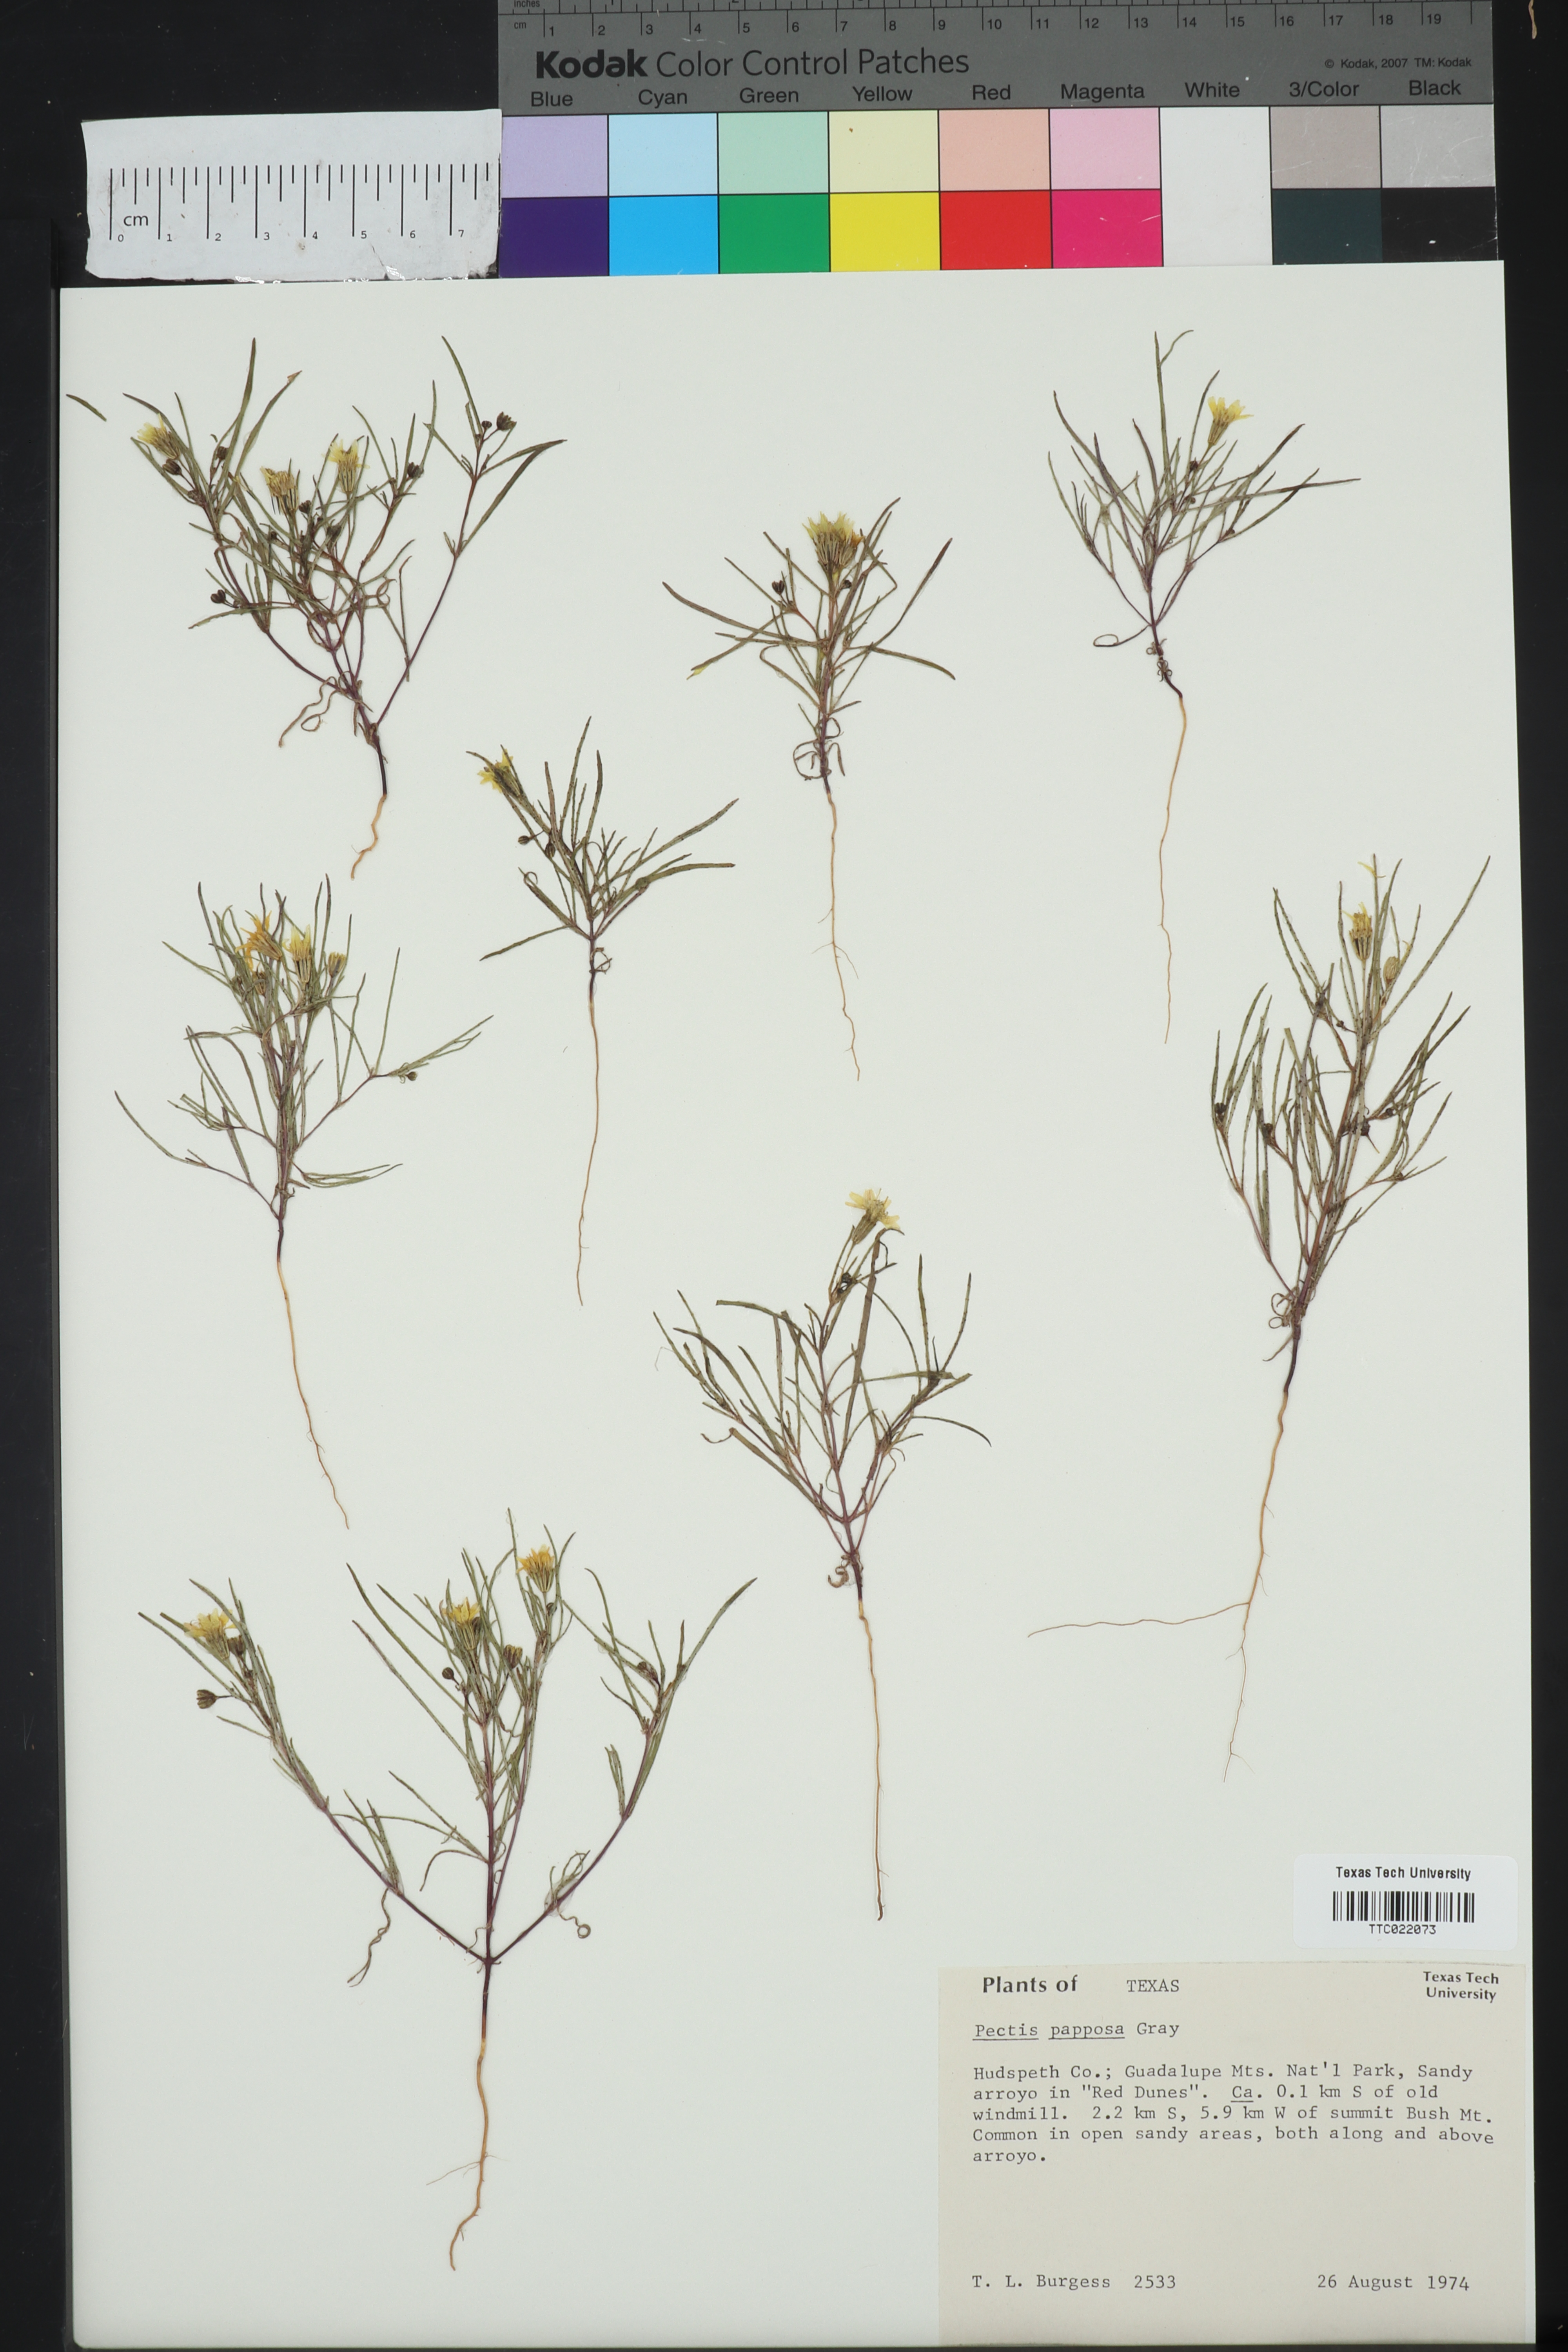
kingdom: Plantae
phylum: Tracheophyta
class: Magnoliopsida
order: Asterales
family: Asteraceae
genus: Pectis
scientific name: Pectis papposa
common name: Many-bristle chinchweed
